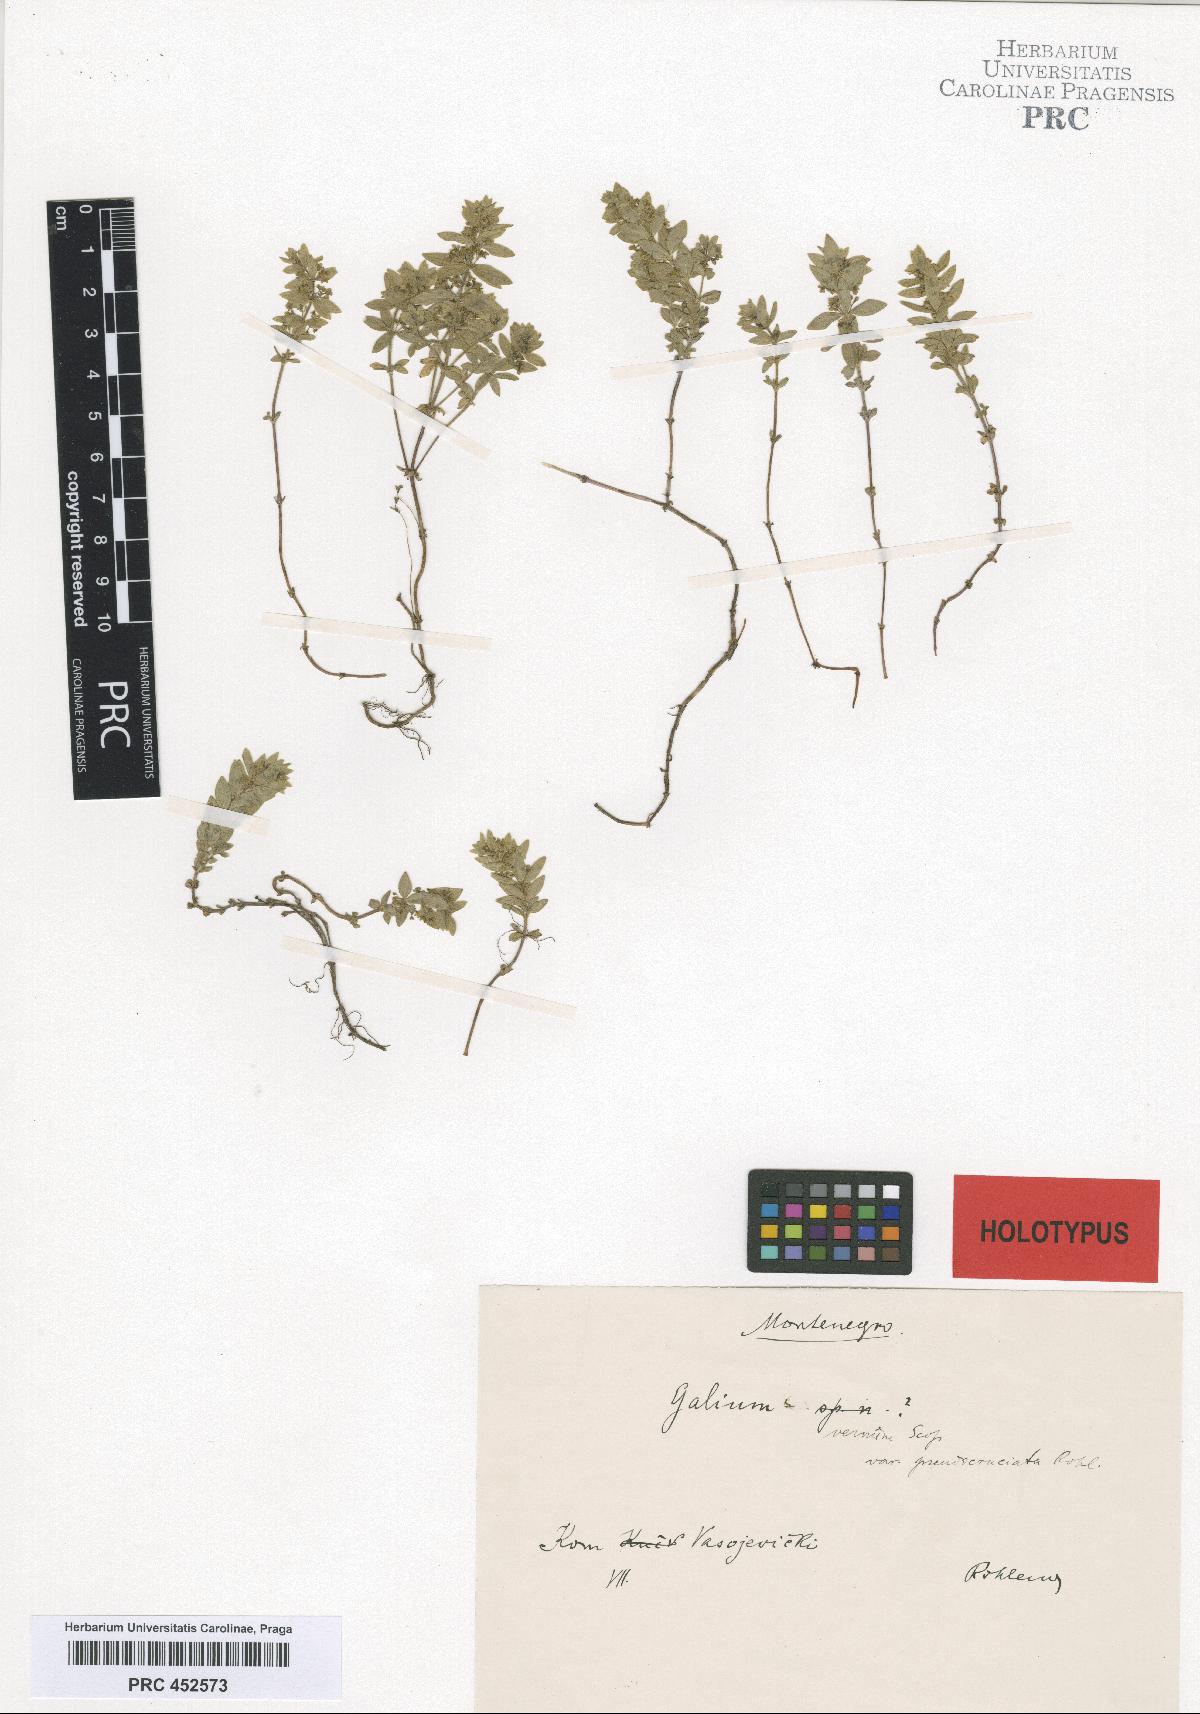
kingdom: Plantae
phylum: Tracheophyta
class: Magnoliopsida
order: Gentianales
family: Rubiaceae
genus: Cruciata
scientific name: Cruciata glabra
